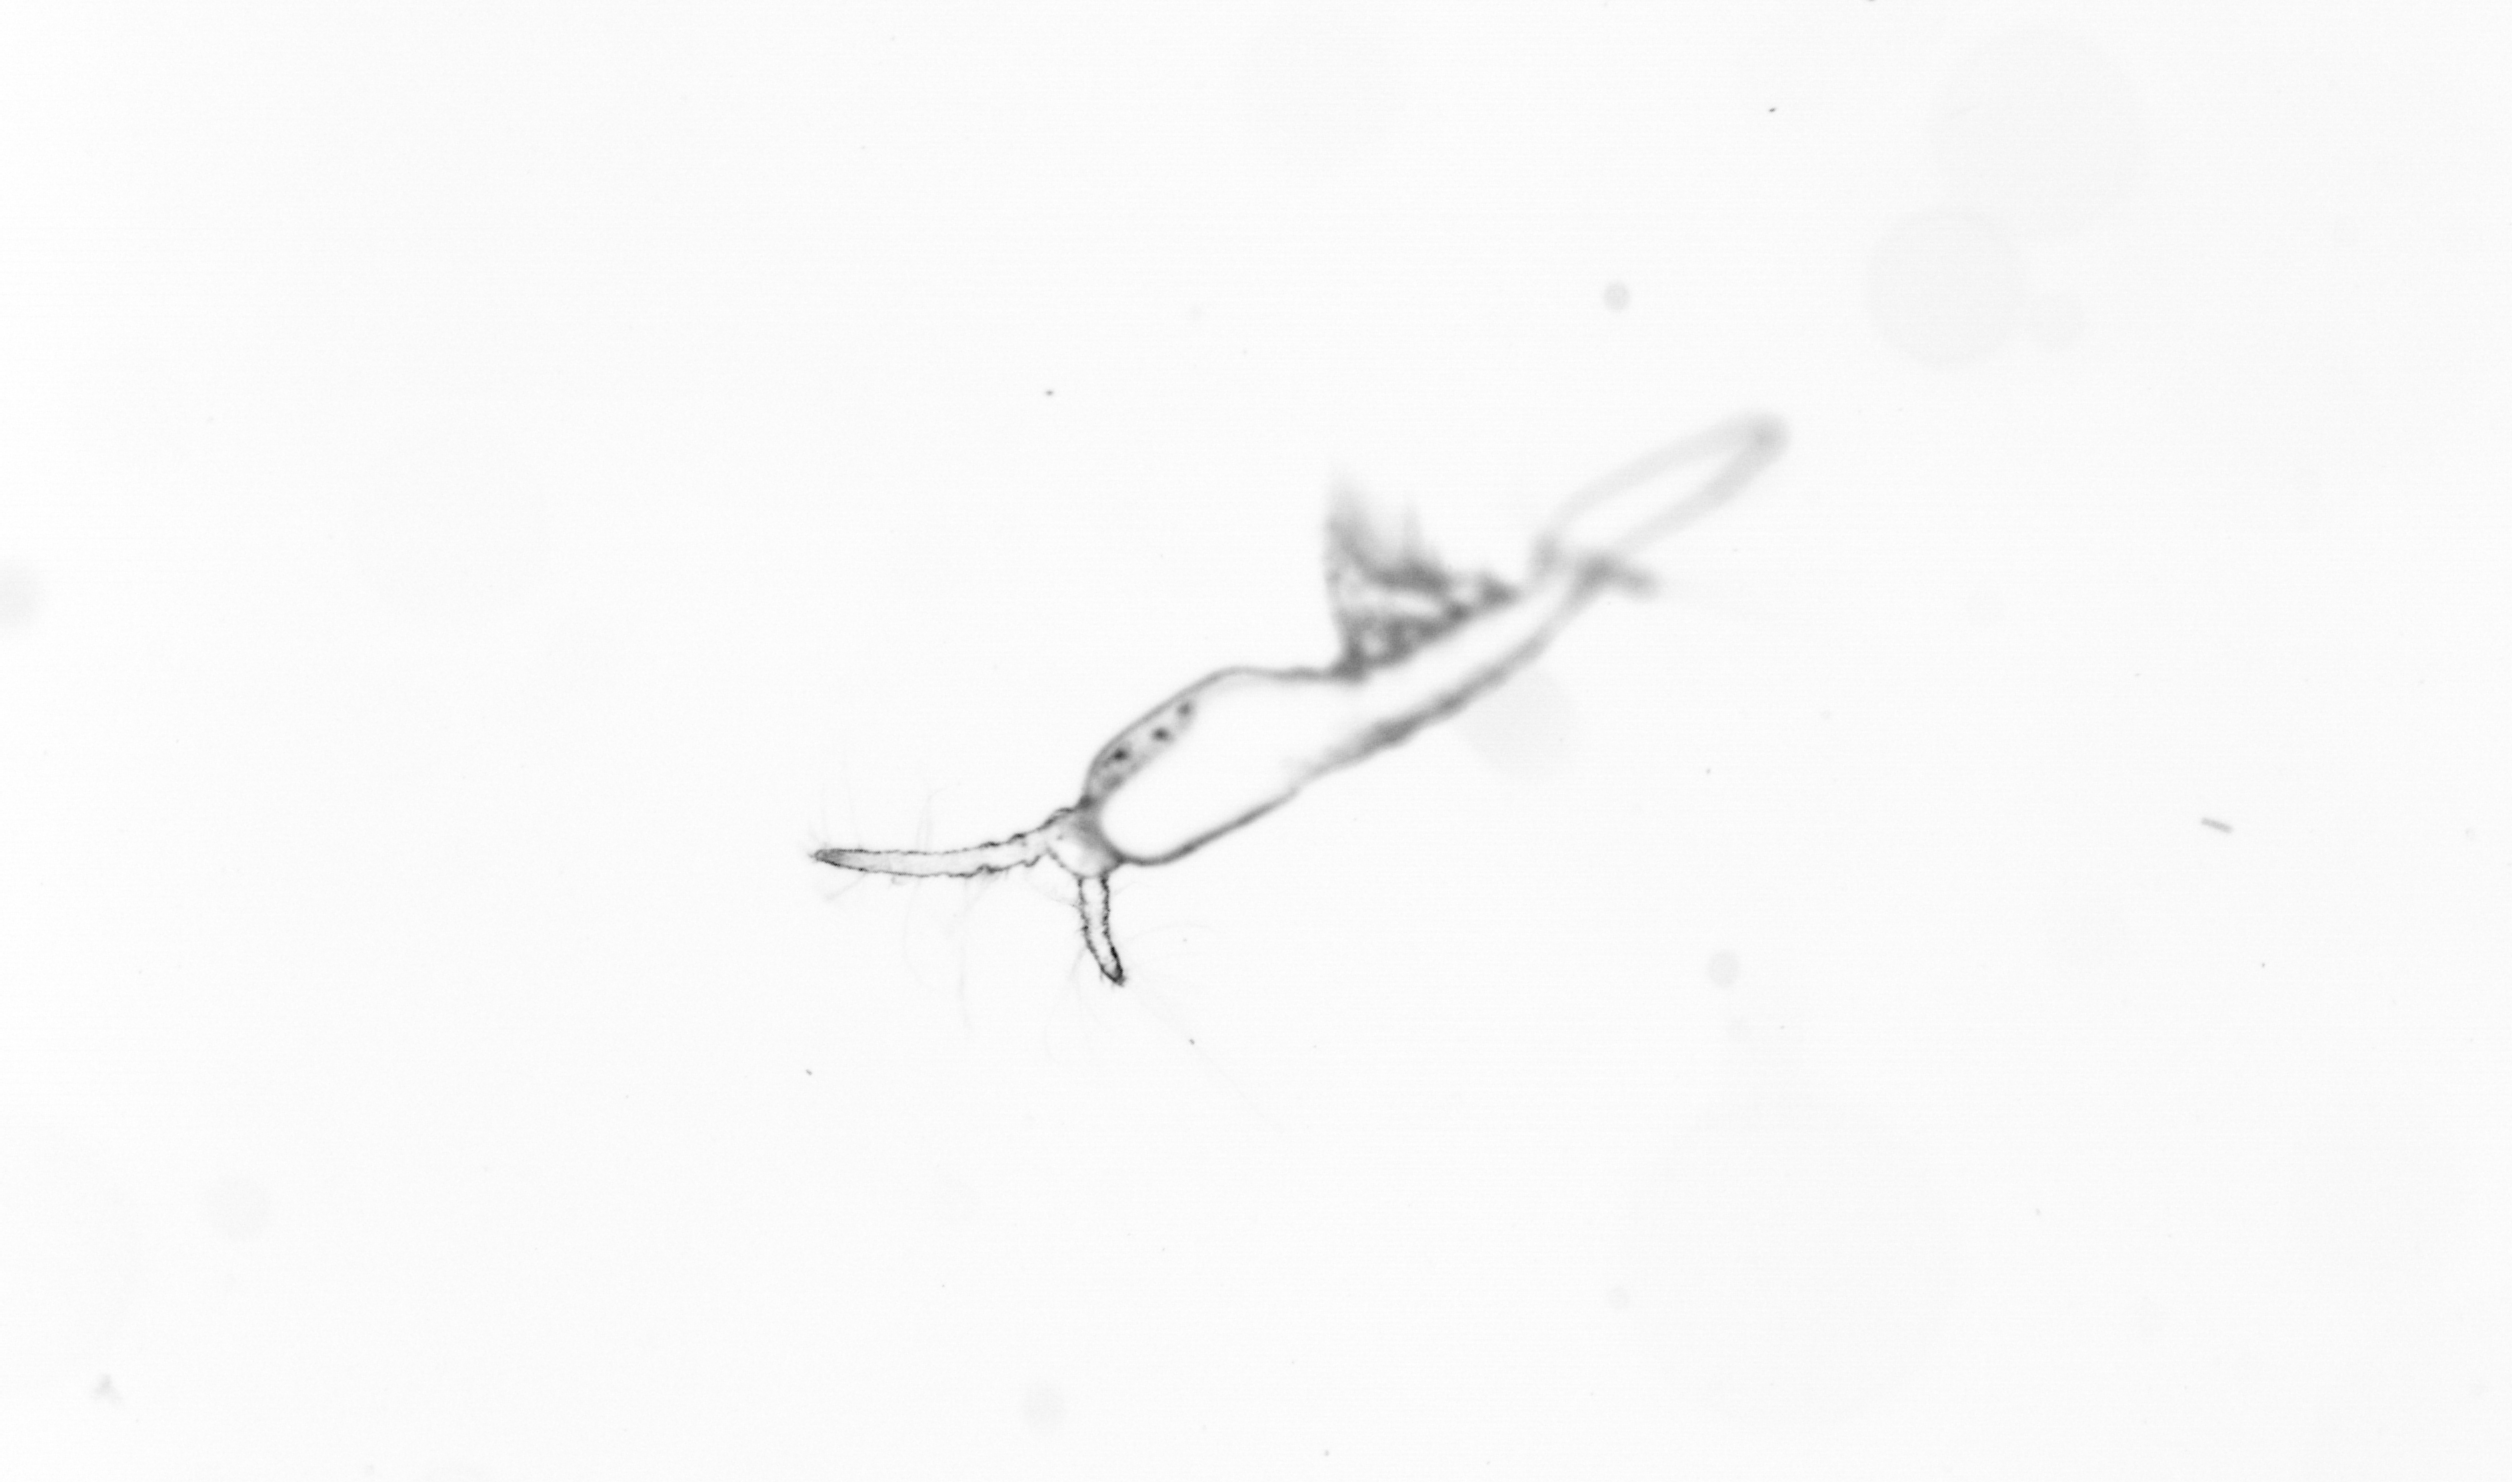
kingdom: Animalia
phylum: Arthropoda
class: Copepoda
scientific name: Copepoda
